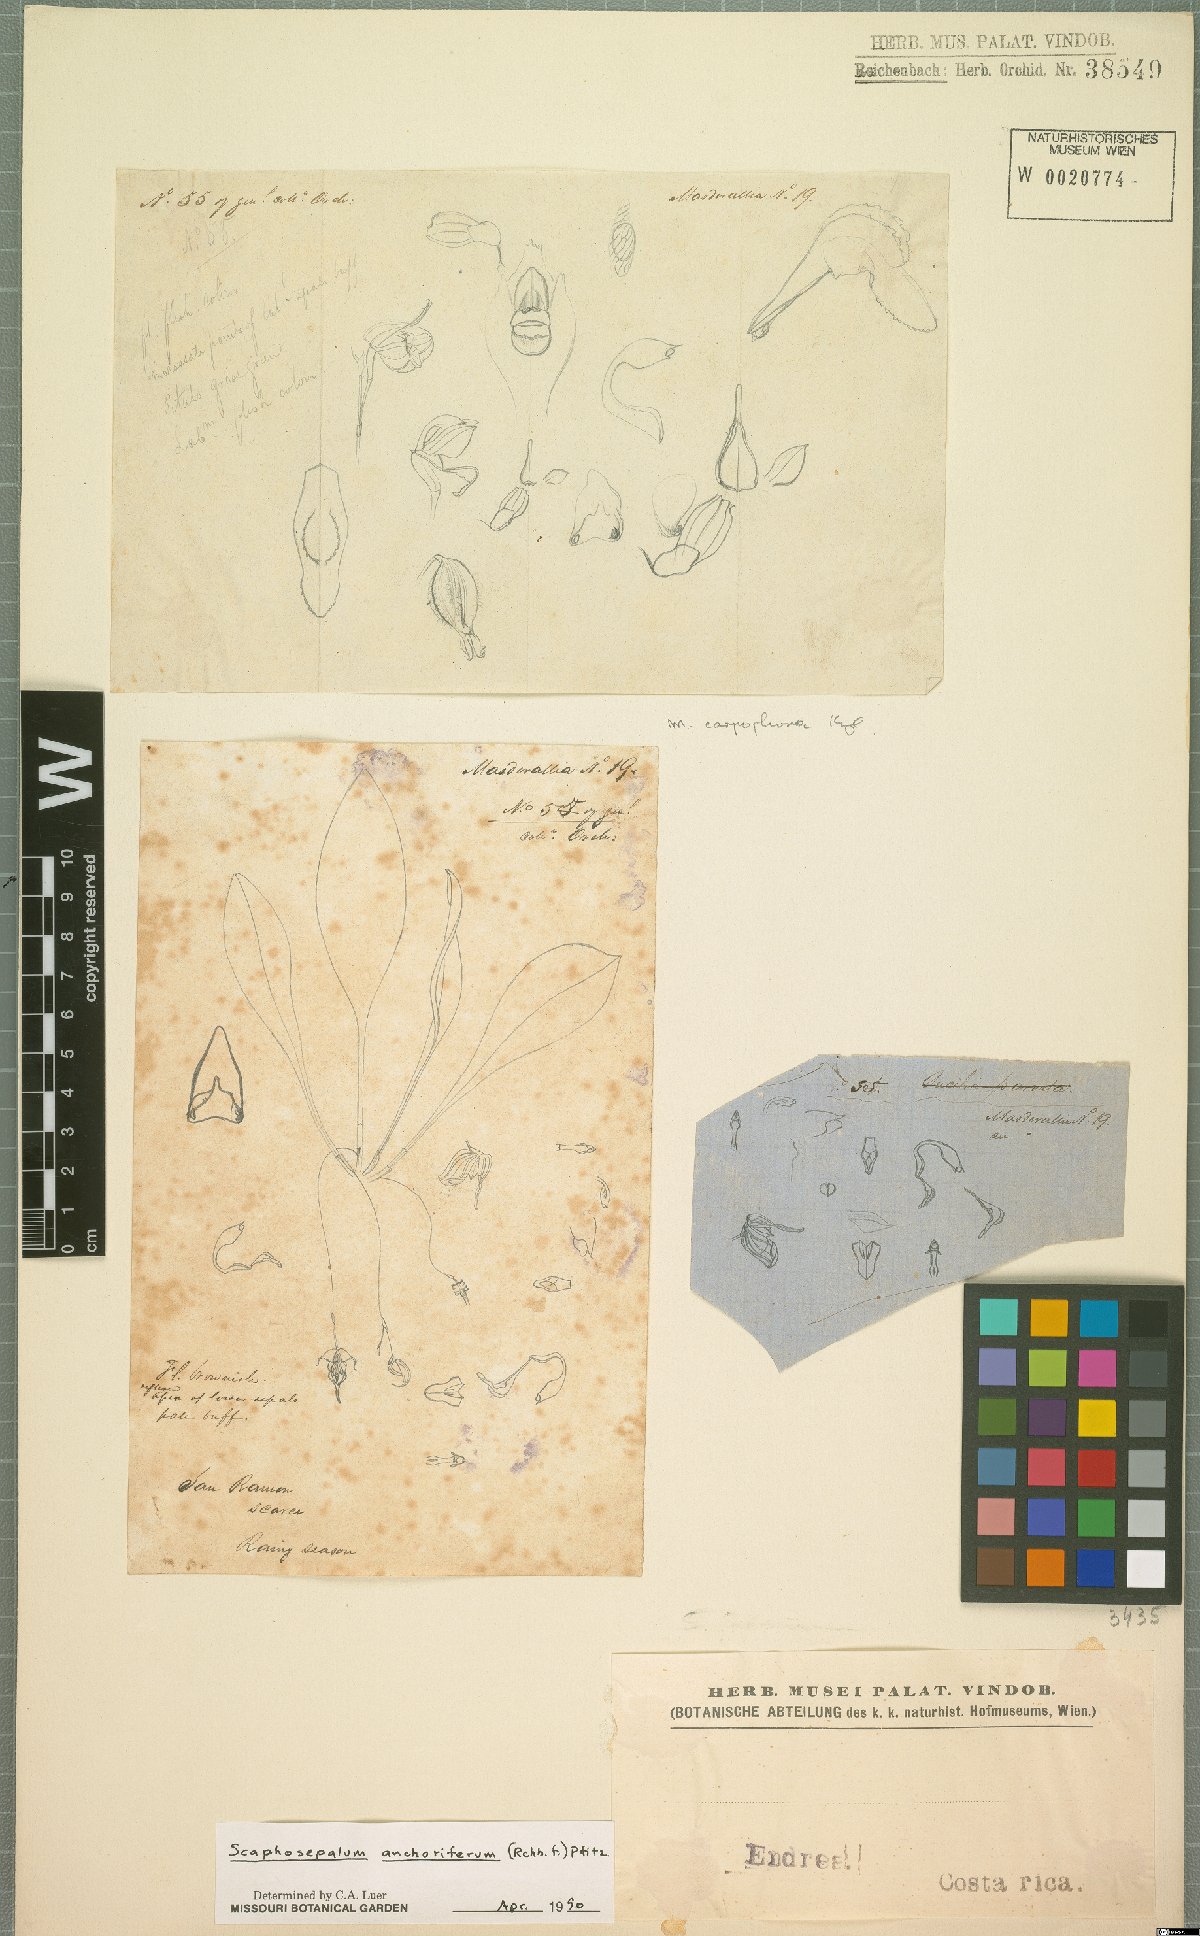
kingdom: Plantae
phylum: Tracheophyta
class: Liliopsida
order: Asparagales
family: Orchidaceae
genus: Scaphosepalum
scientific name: Scaphosepalum anchoriferum
